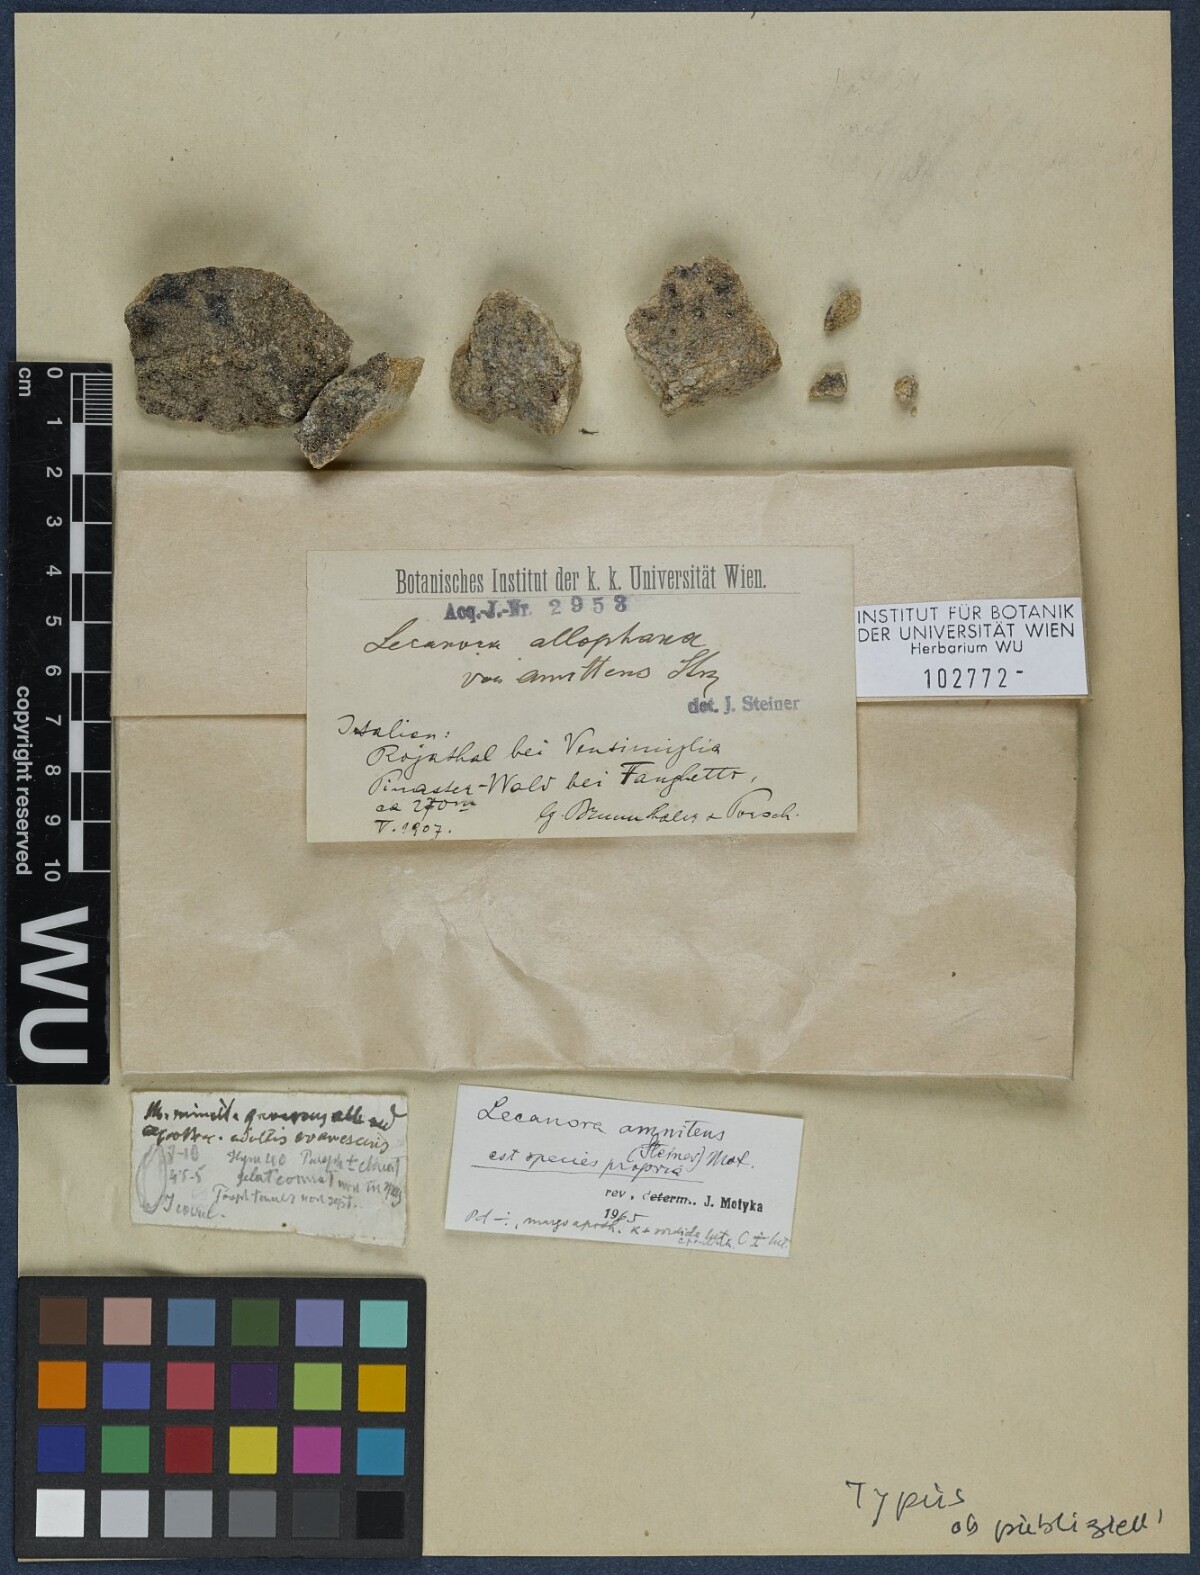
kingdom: Fungi
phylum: Ascomycota
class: Lecanoromycetes
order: Lecanorales
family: Lecanoraceae
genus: Lecanora
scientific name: Lecanora albella
